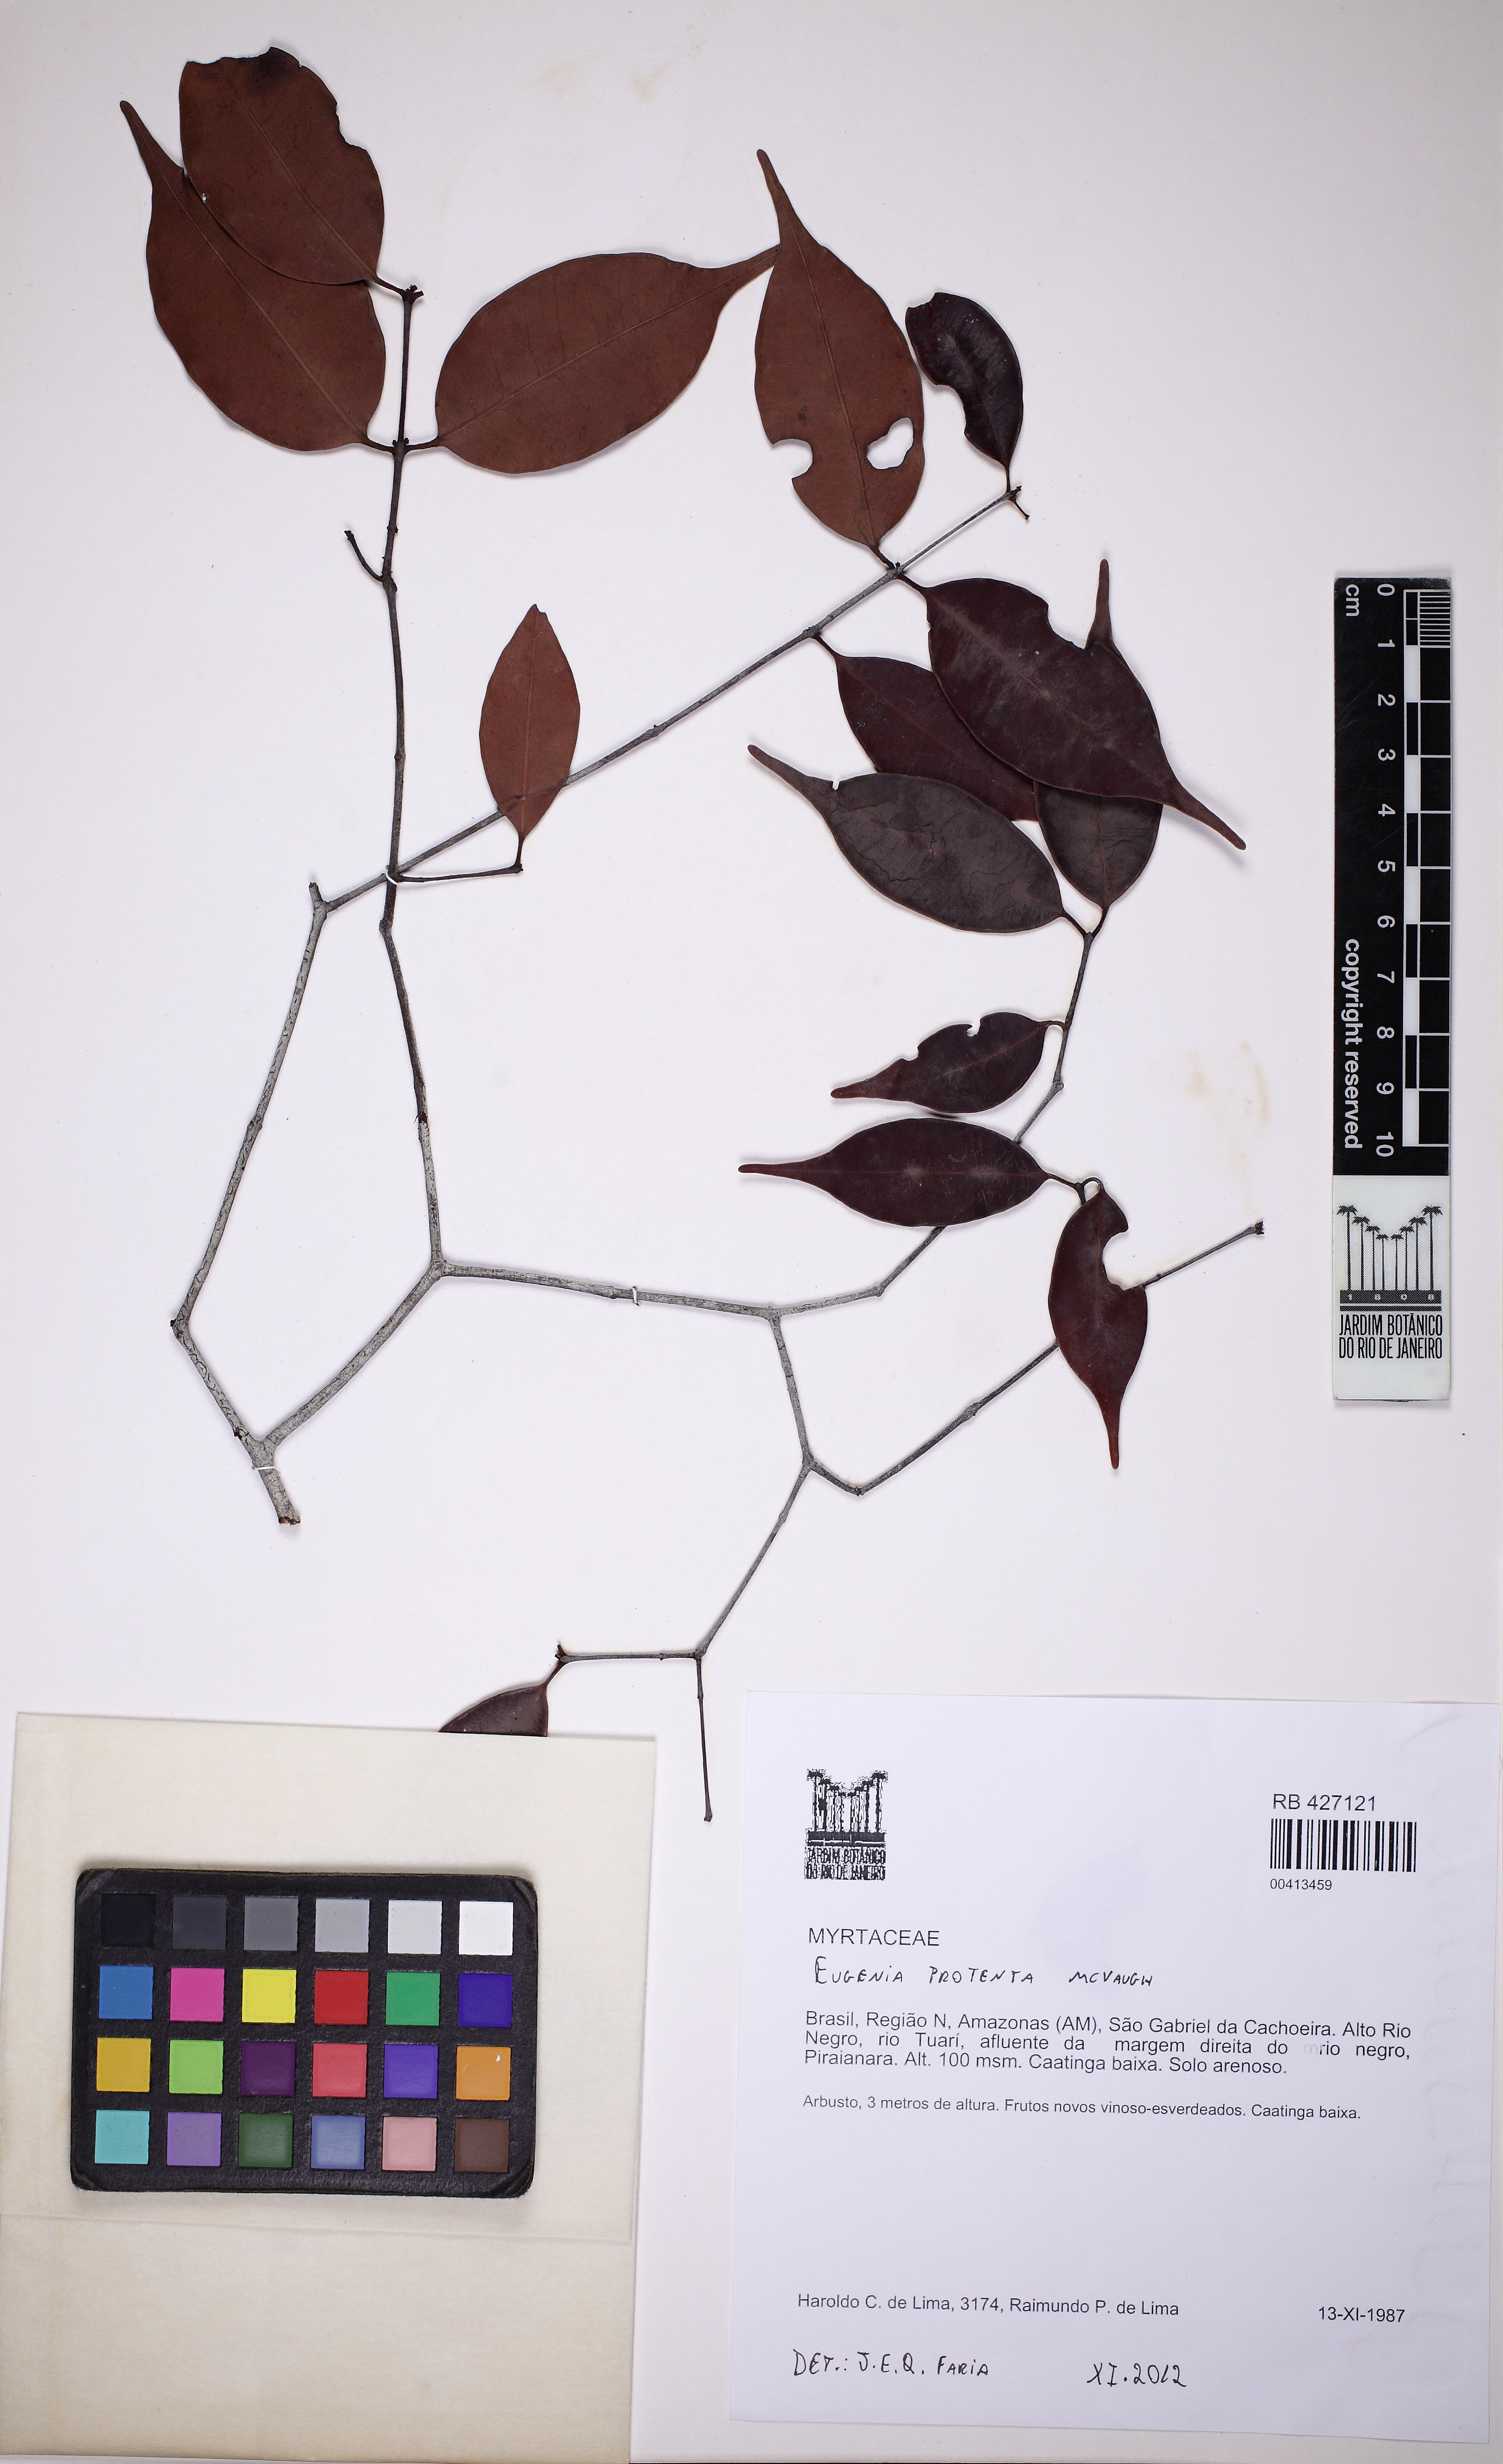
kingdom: Plantae
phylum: Tracheophyta
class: Magnoliopsida
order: Myrtales
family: Myrtaceae
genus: Eugenia
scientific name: Eugenia protenta
